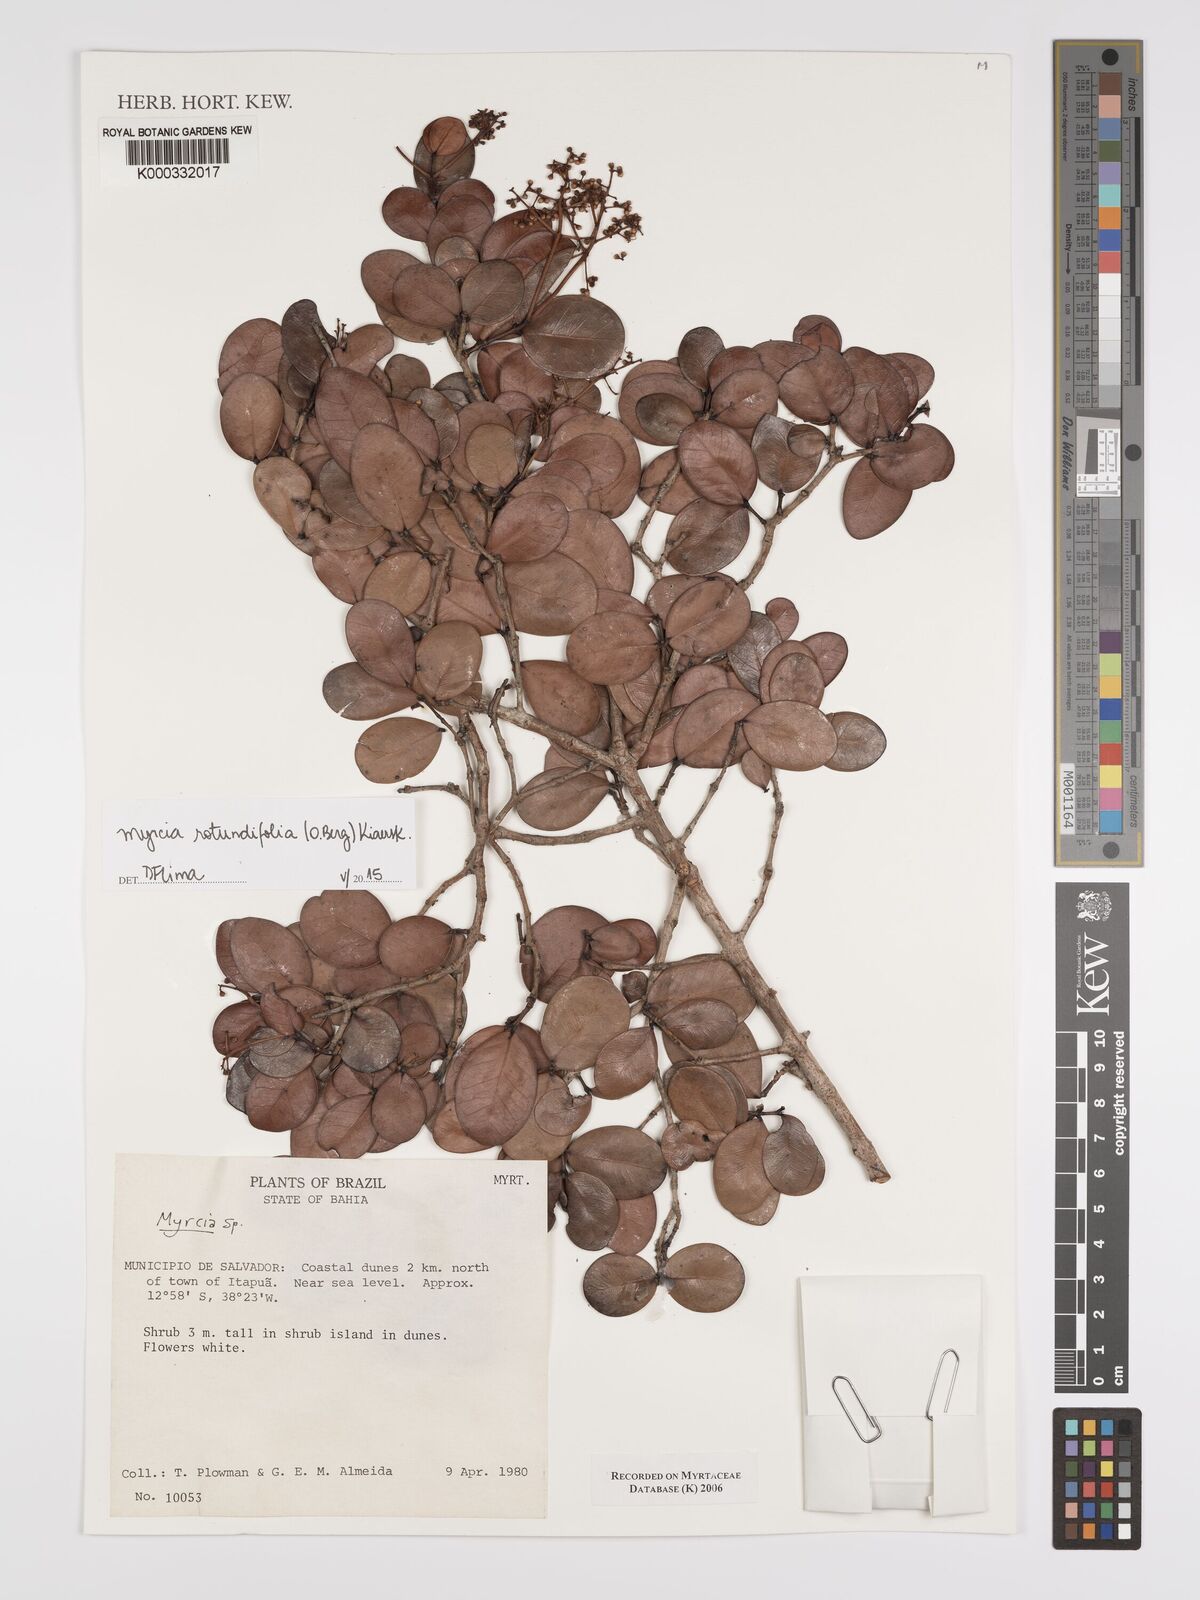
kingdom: Plantae
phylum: Tracheophyta
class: Magnoliopsida
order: Myrtales
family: Myrtaceae
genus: Myrcia
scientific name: Myrcia
